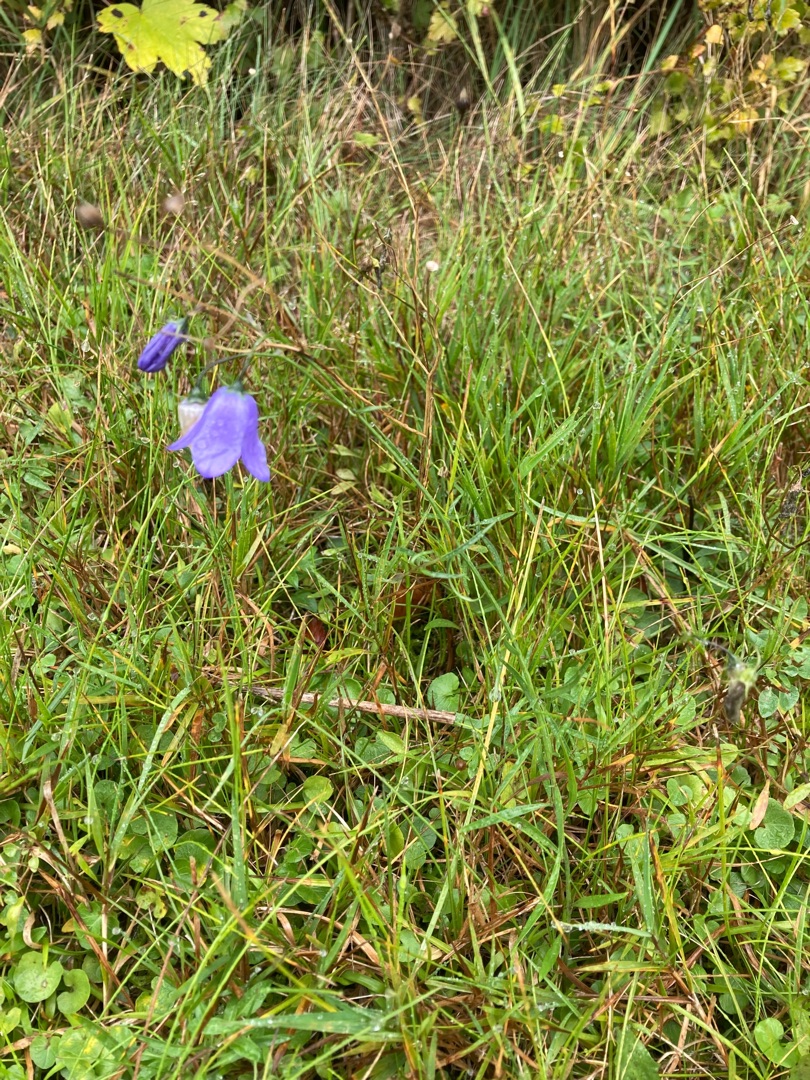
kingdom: Plantae
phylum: Tracheophyta
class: Magnoliopsida
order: Asterales
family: Campanulaceae
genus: Campanula
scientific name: Campanula rotundifolia
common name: Liden klokke
